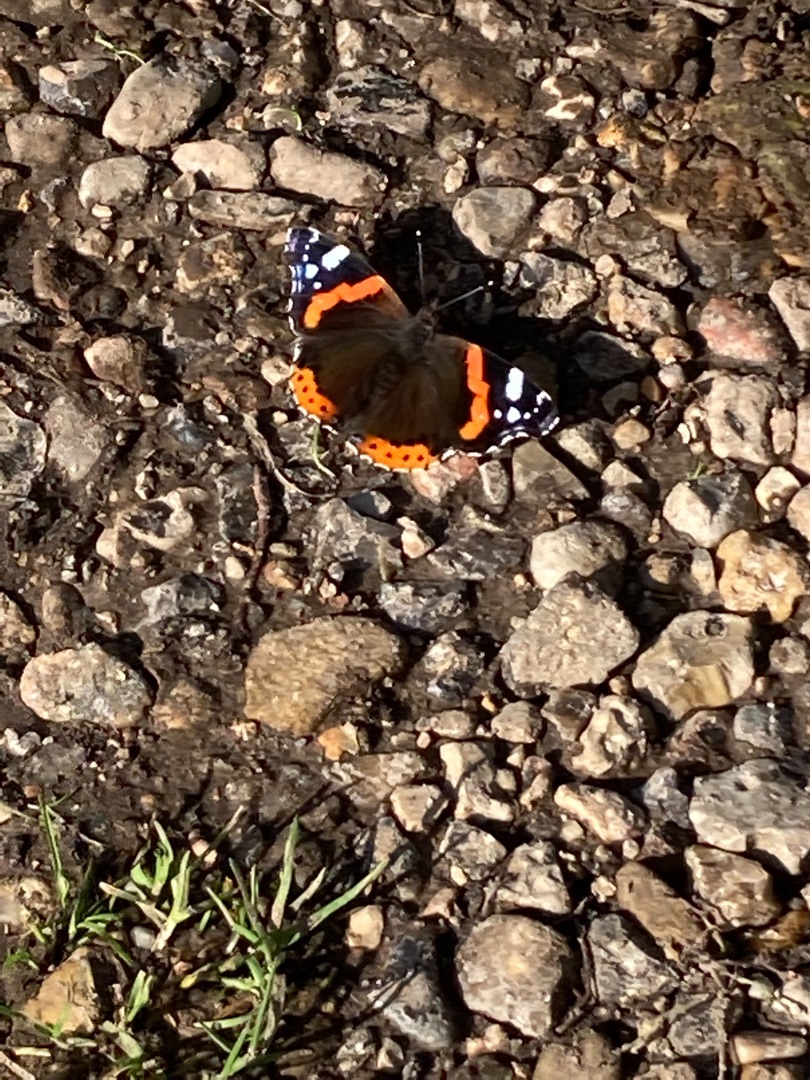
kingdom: Animalia
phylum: Arthropoda
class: Insecta
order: Lepidoptera
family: Nymphalidae
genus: Vanessa
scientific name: Vanessa atalanta
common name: Admiral
